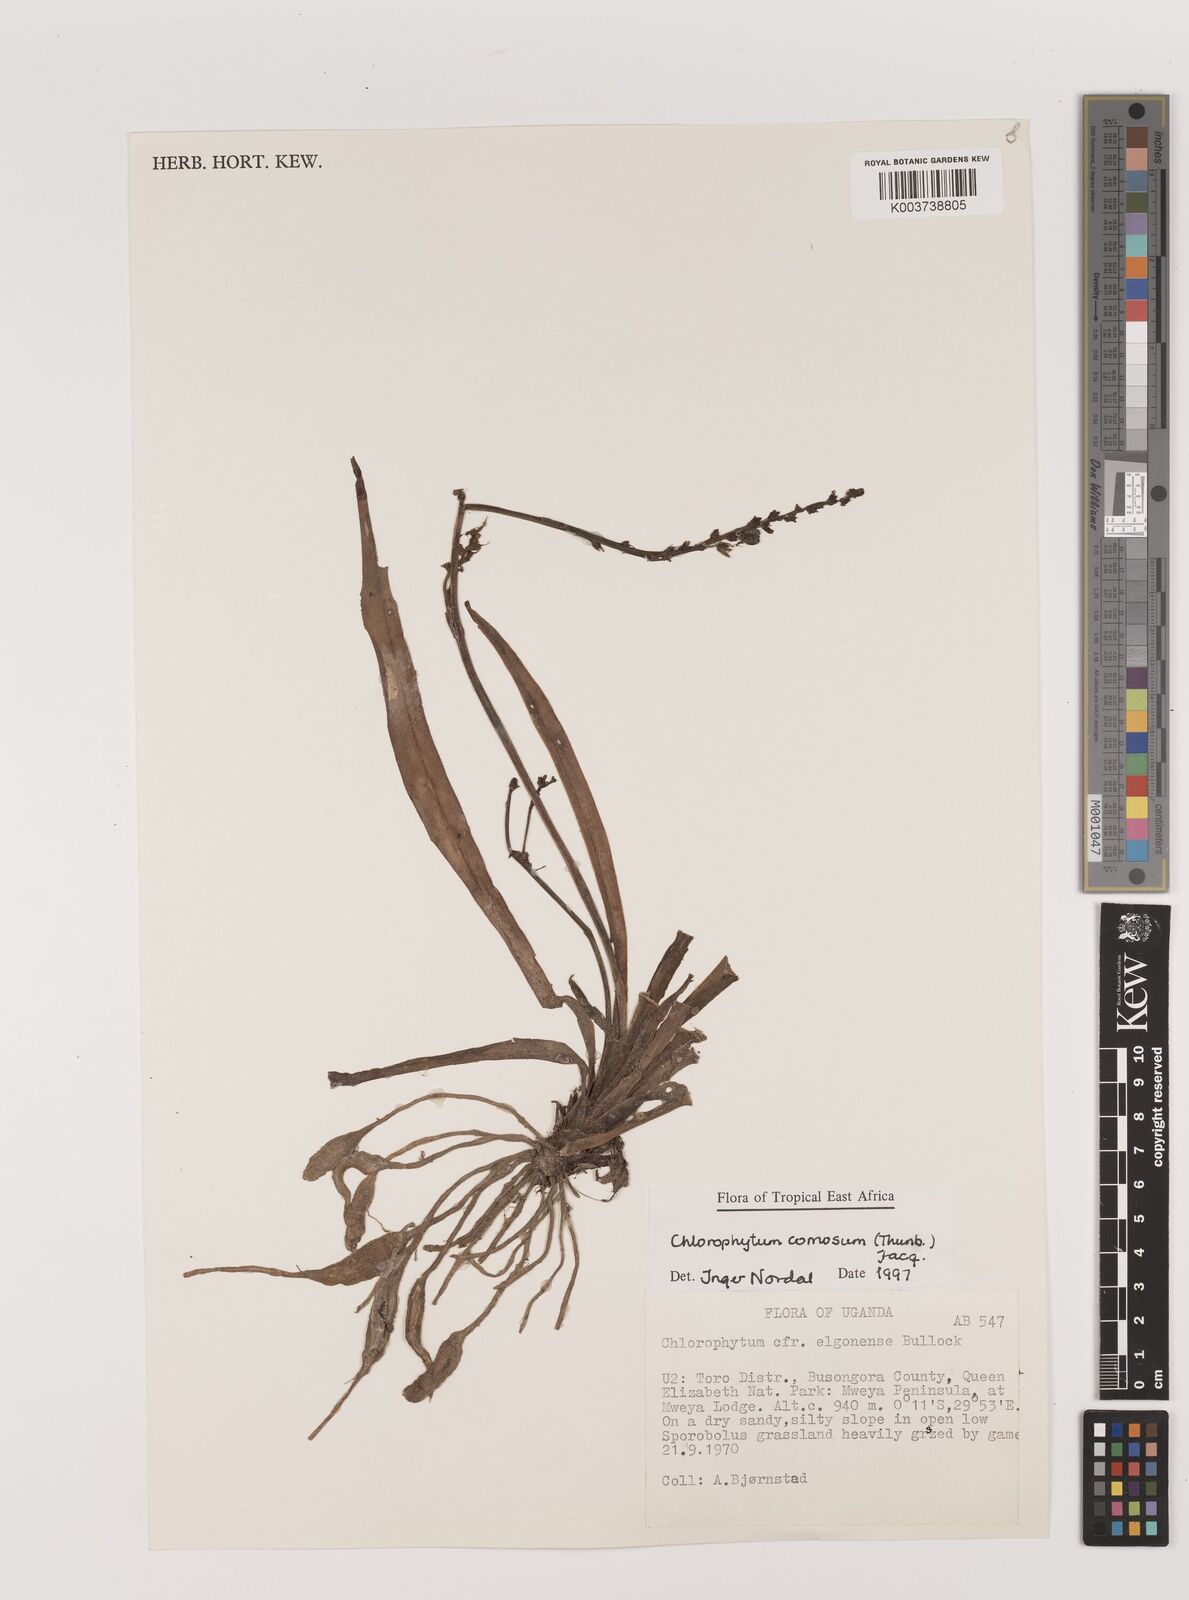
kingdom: Plantae
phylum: Tracheophyta
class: Liliopsida
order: Asparagales
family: Asparagaceae
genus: Chlorophytum
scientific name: Chlorophytum comosum
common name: Spider plant
